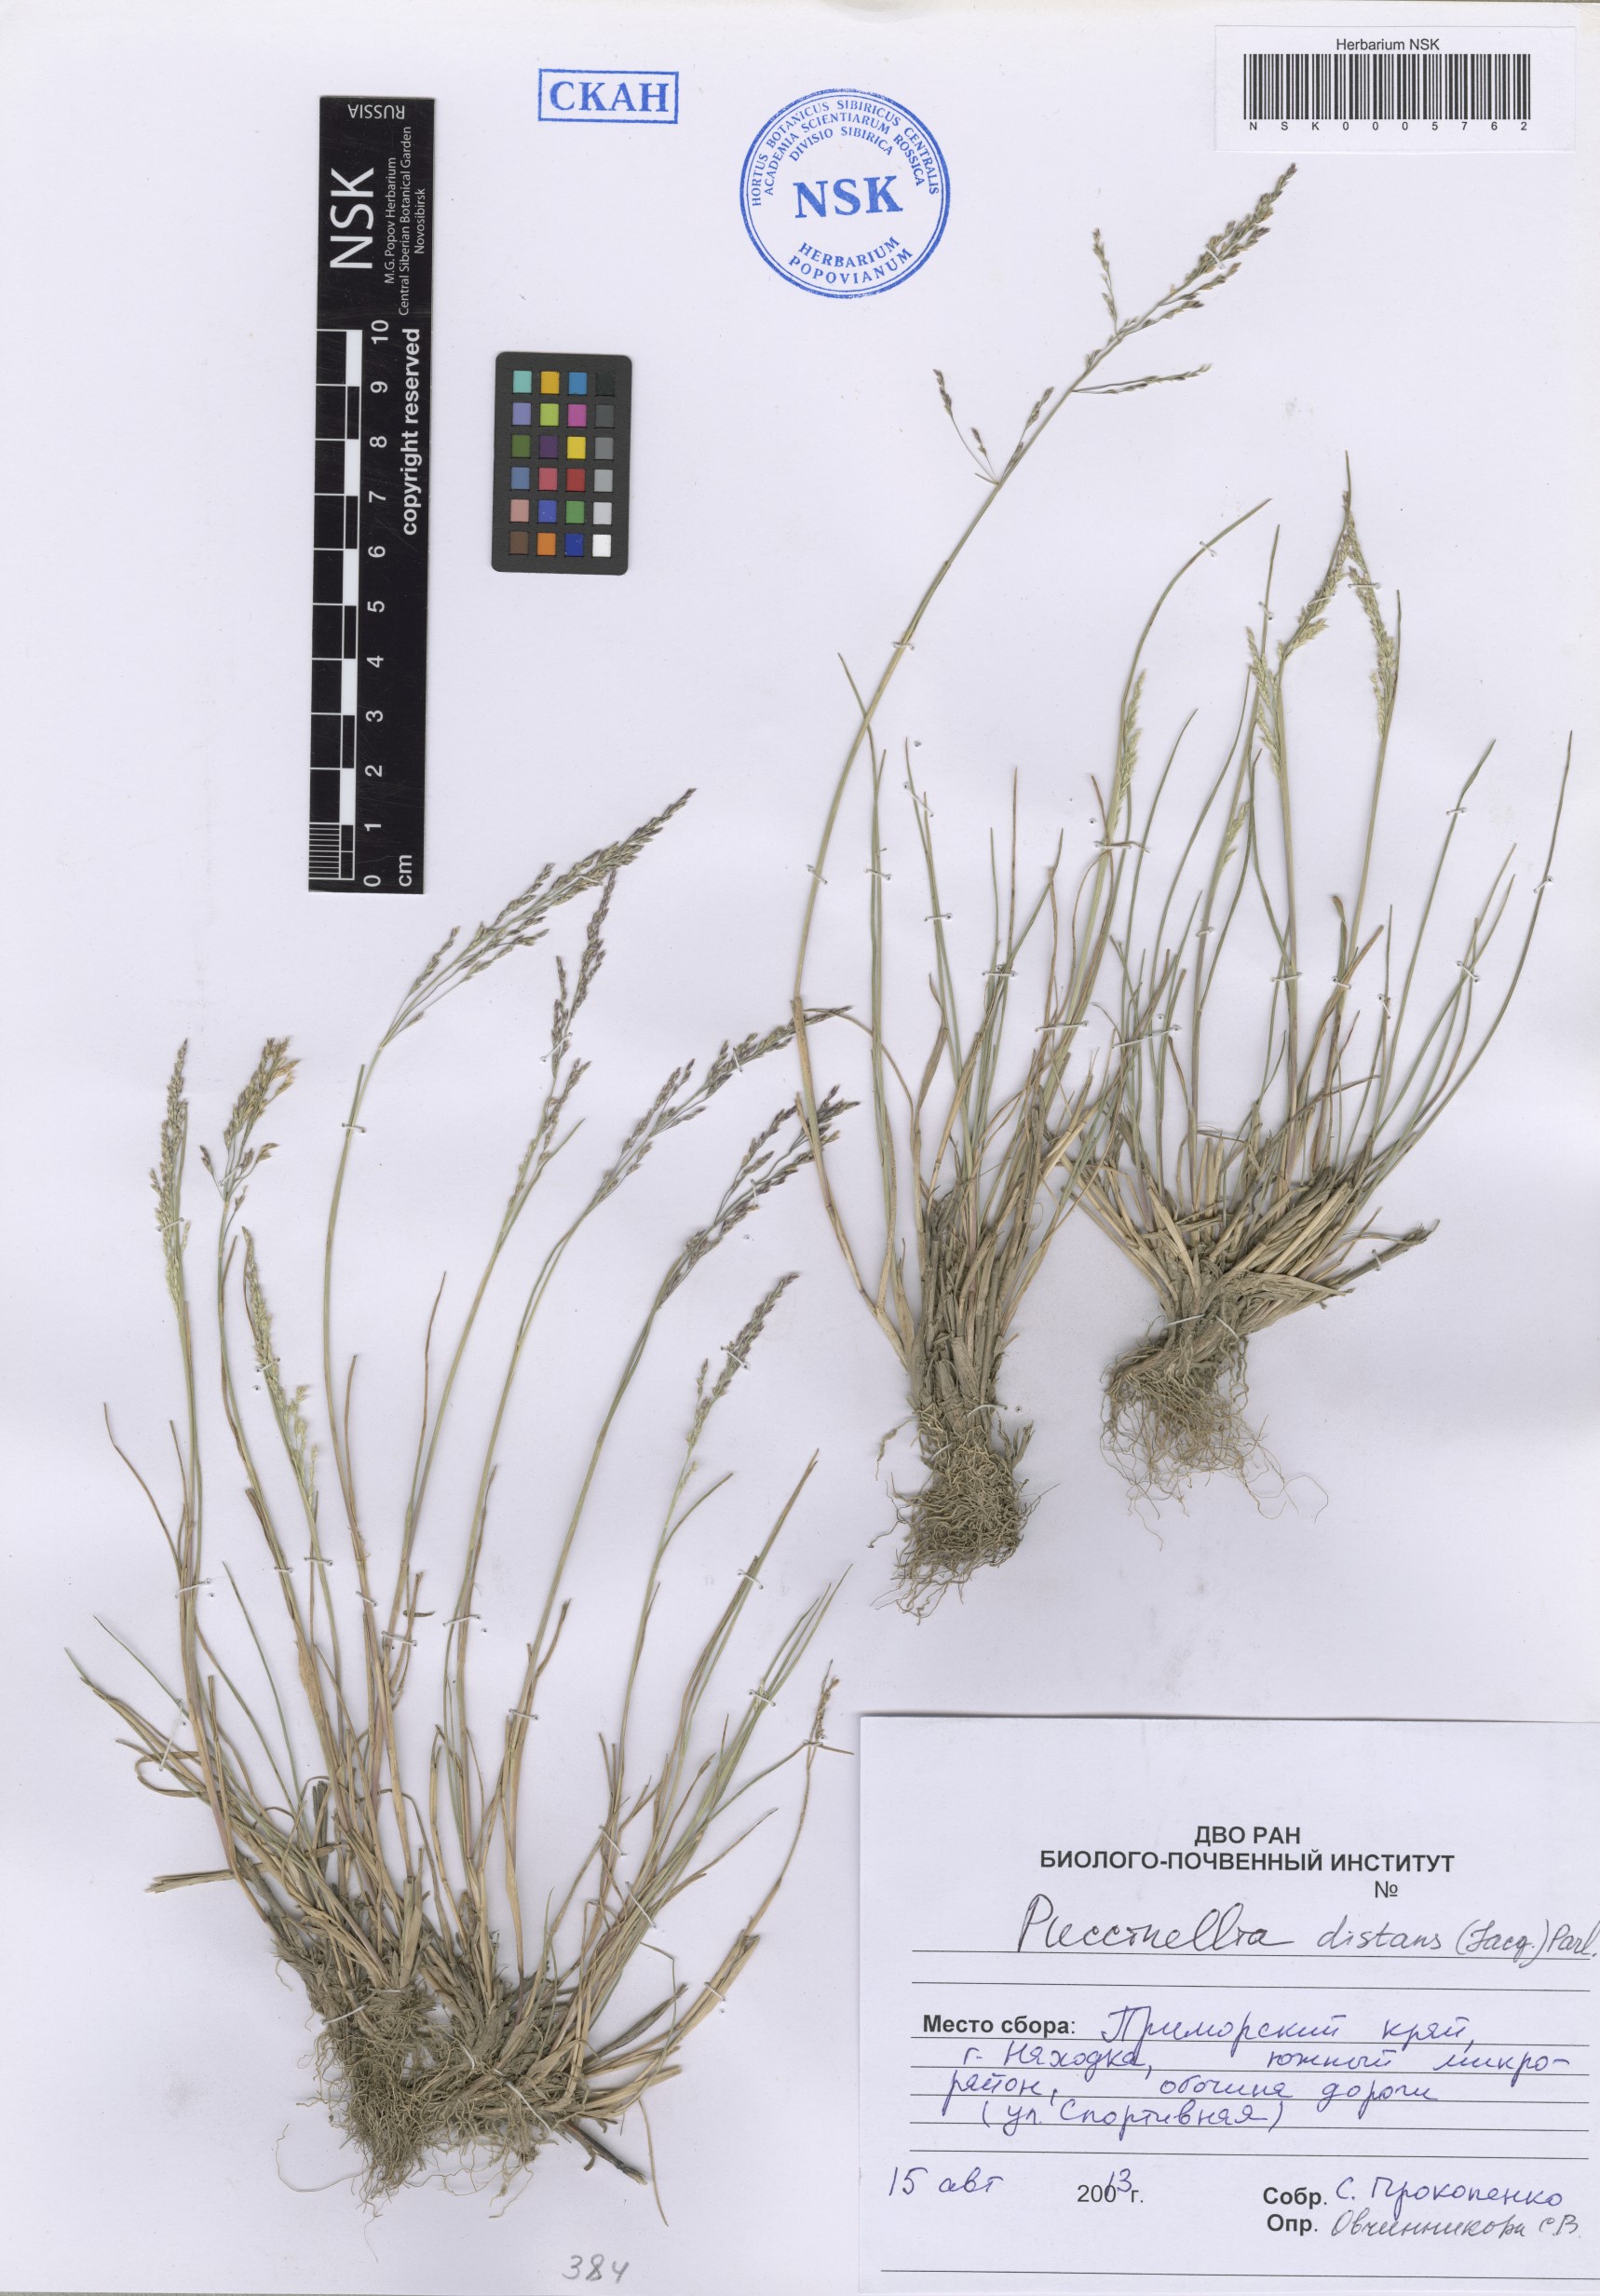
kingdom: Plantae
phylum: Tracheophyta
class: Liliopsida
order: Poales
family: Poaceae
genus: Puccinellia
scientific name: Puccinellia distans
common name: Weeping alkaligrass
